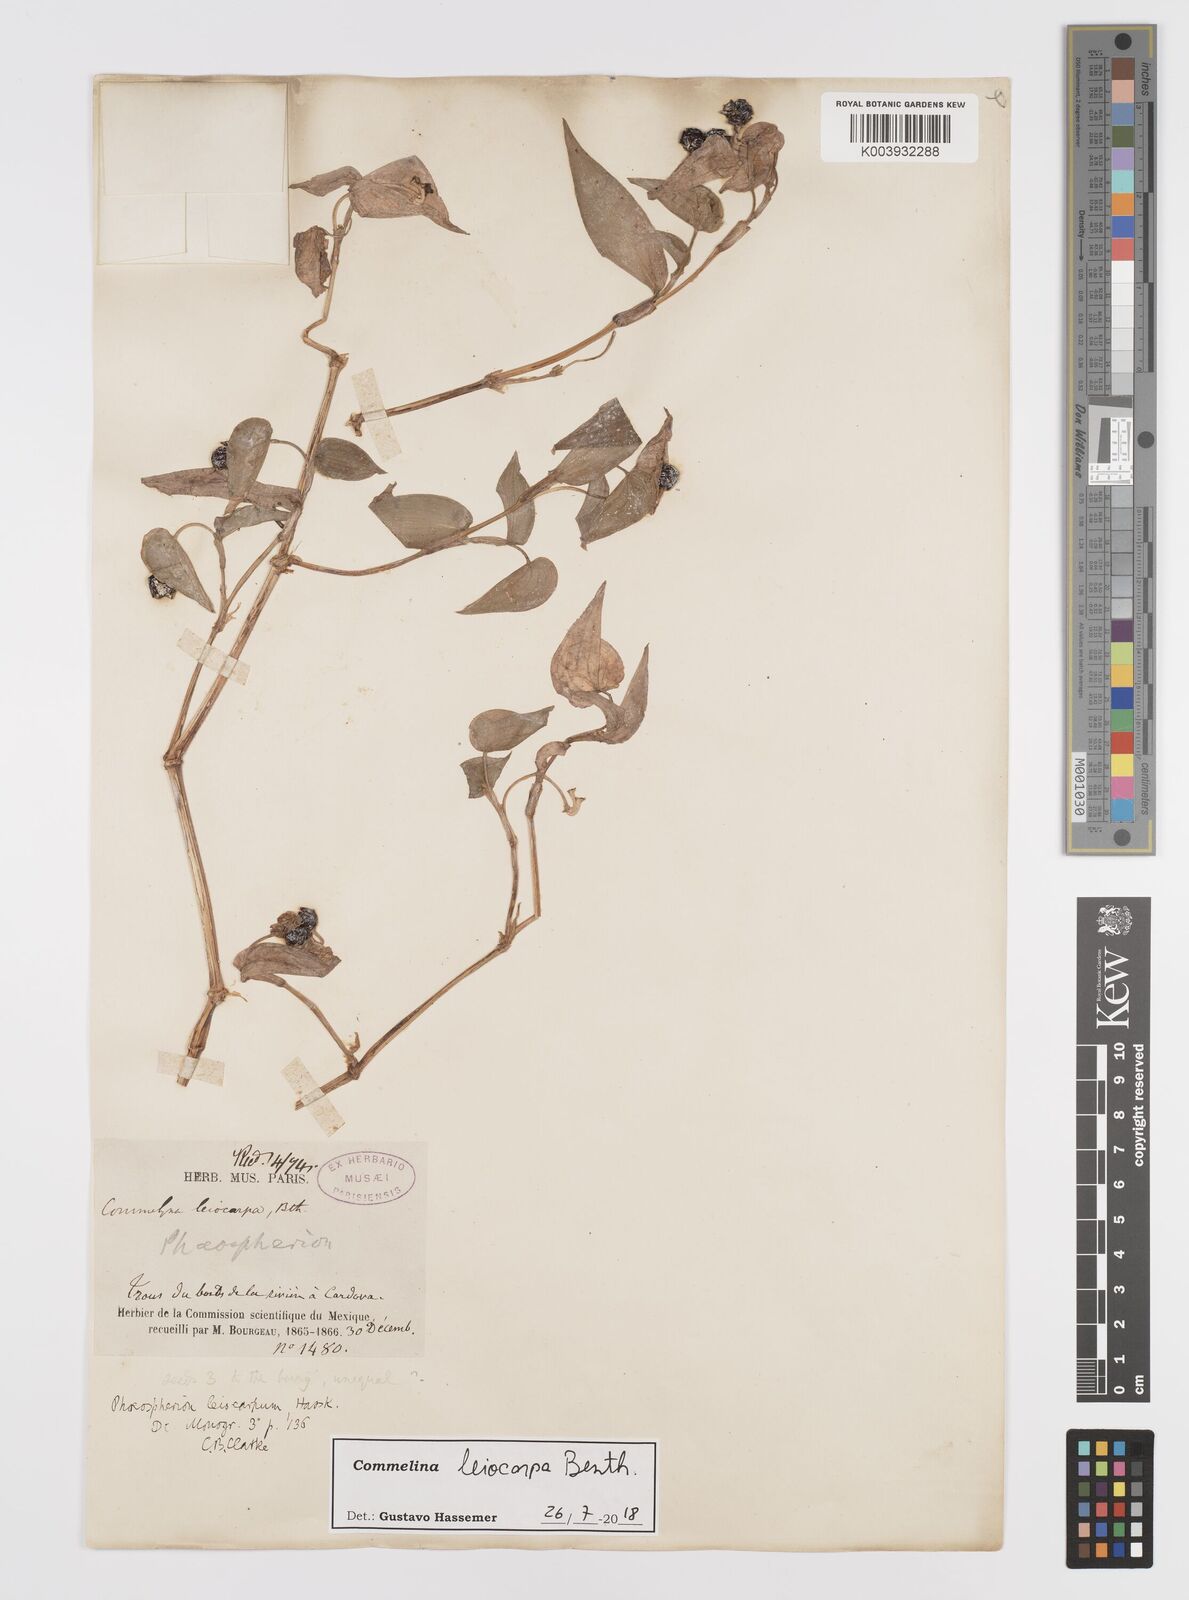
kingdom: Plantae
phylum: Tracheophyta
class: Liliopsida
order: Commelinales
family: Commelinaceae
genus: Commelina
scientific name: Commelina leiocarpa
